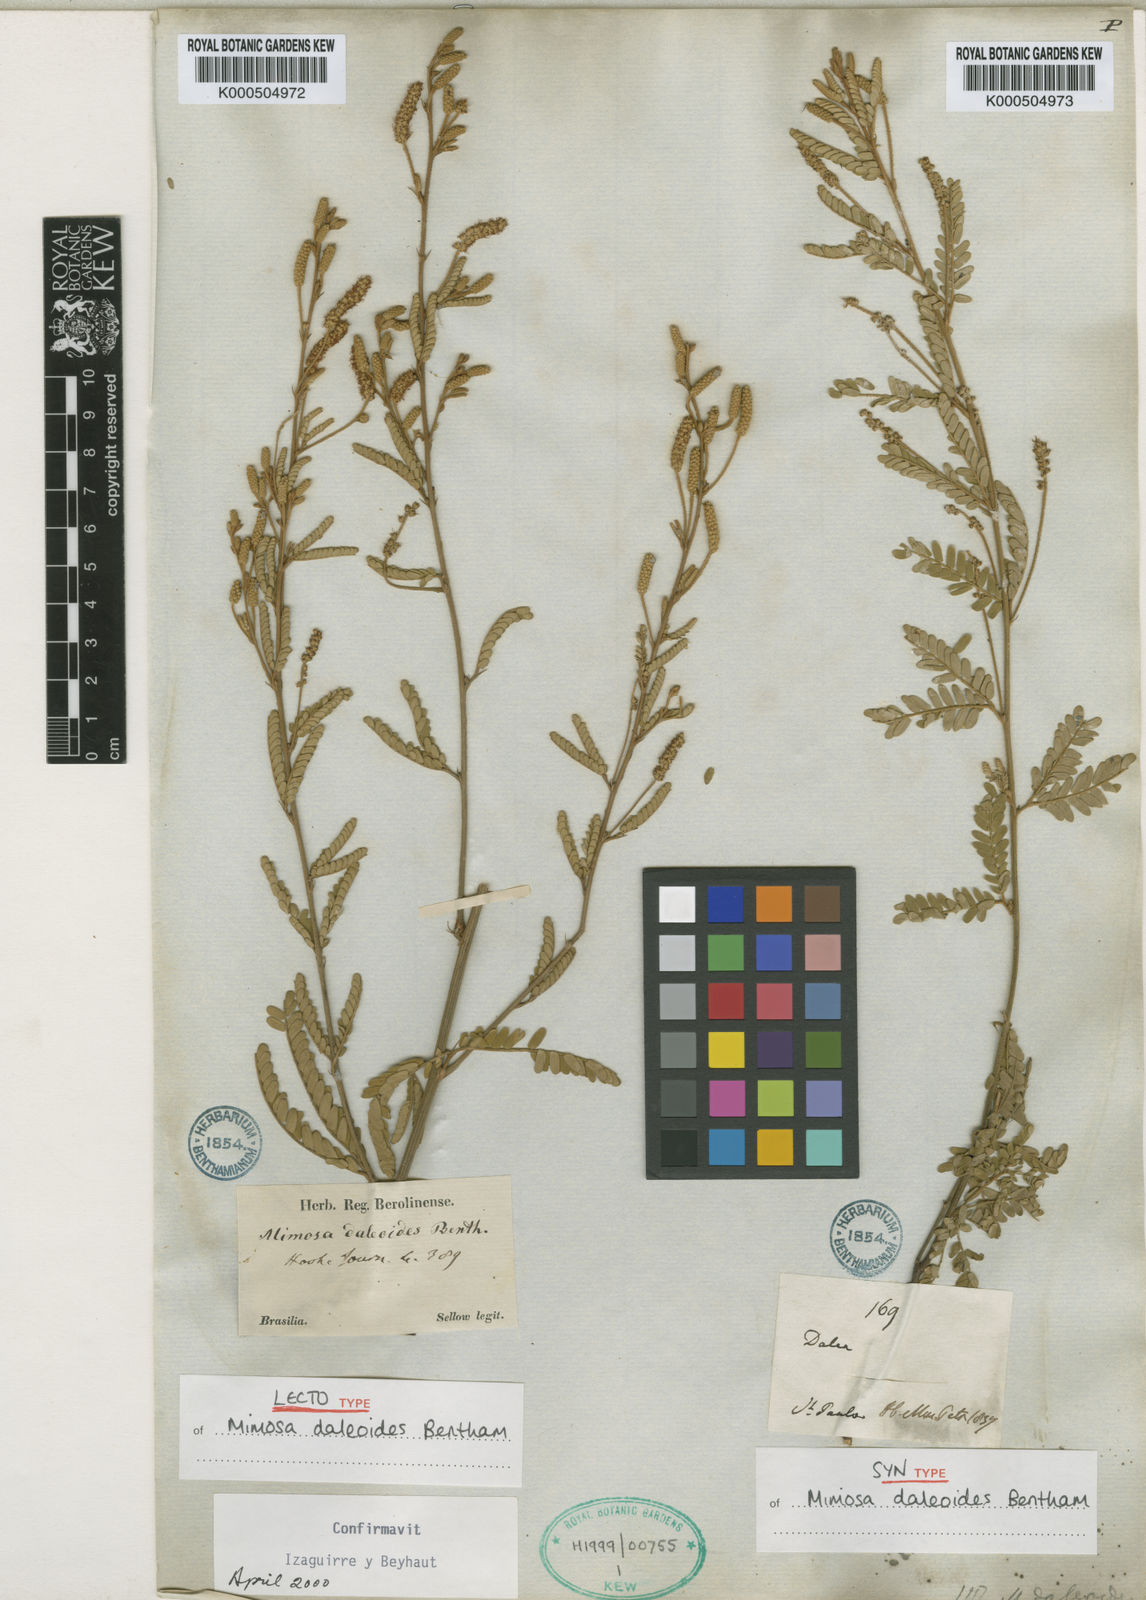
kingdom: Plantae
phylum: Tracheophyta
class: Magnoliopsida
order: Fabales
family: Fabaceae
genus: Mimosa
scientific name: Mimosa daleoides
